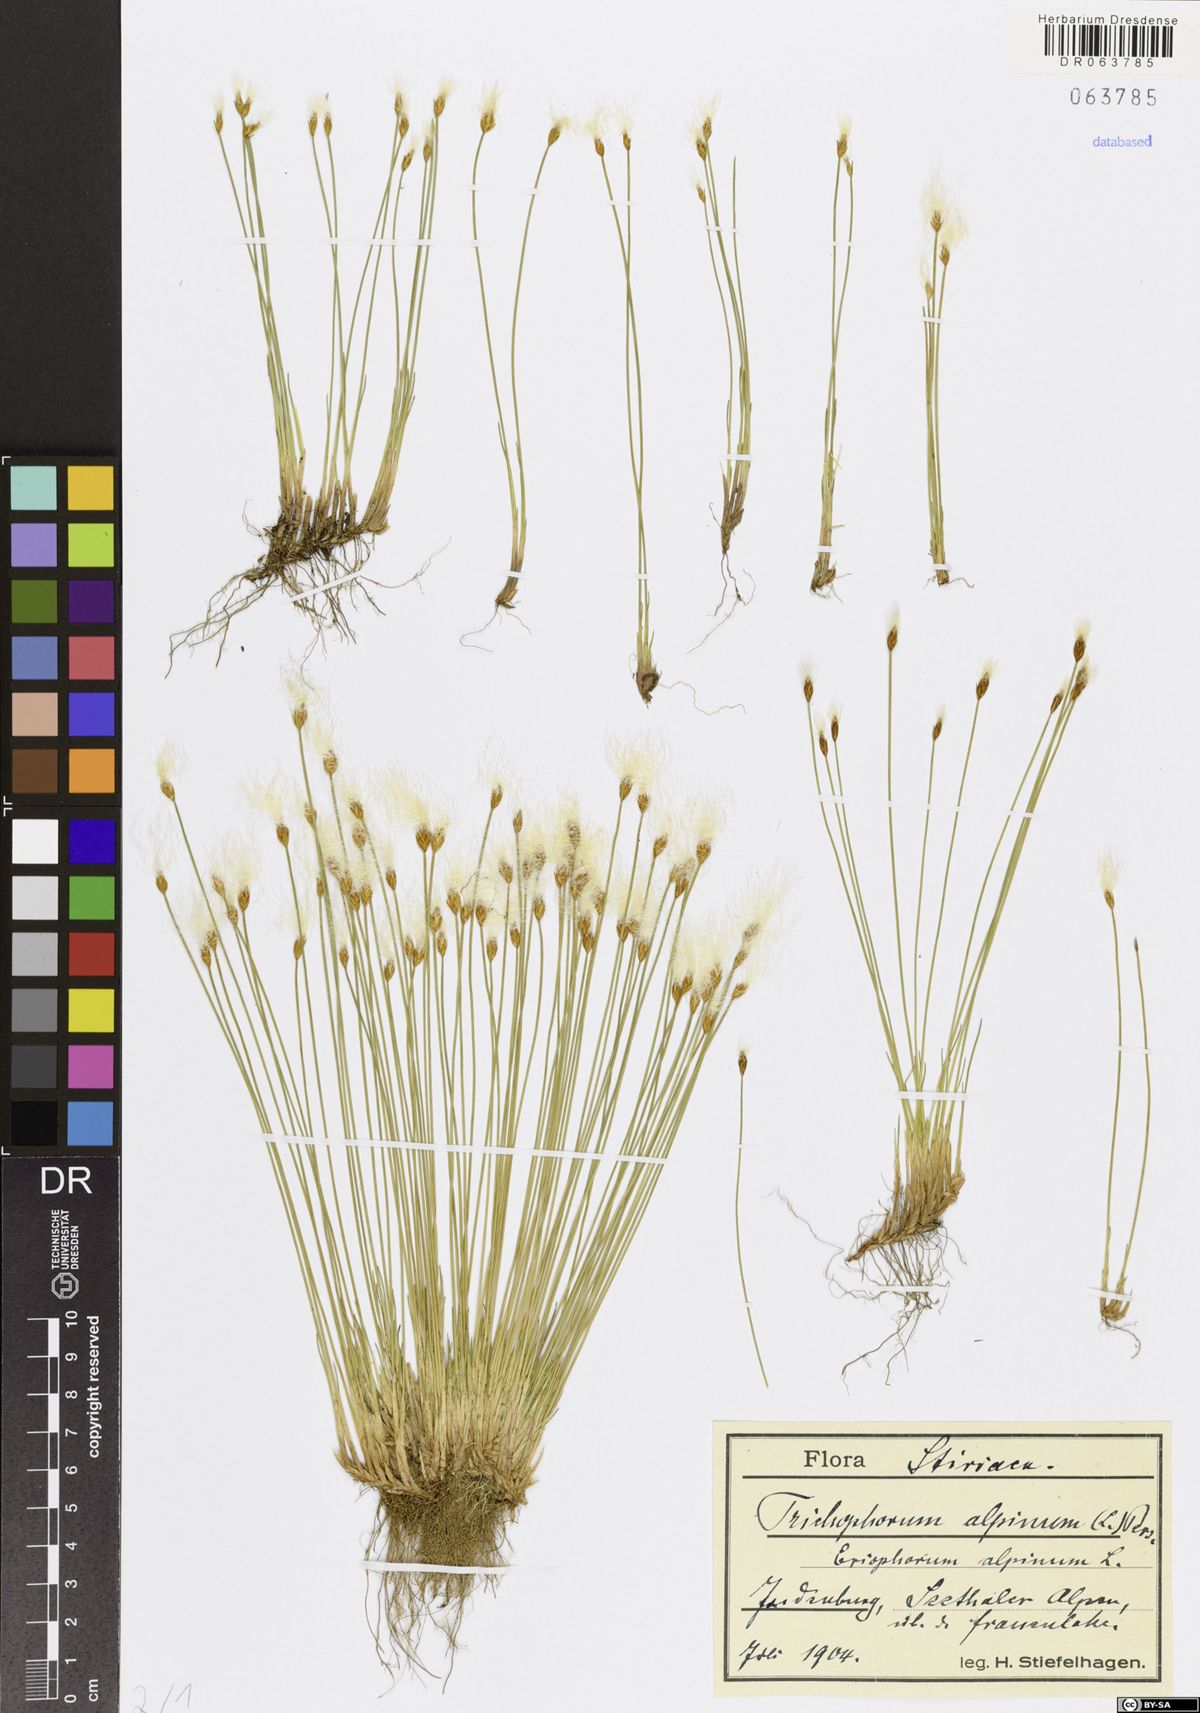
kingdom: Plantae
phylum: Tracheophyta
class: Liliopsida
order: Poales
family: Cyperaceae
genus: Trichophorum
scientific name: Trichophorum alpinum
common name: Alpine bulrush
